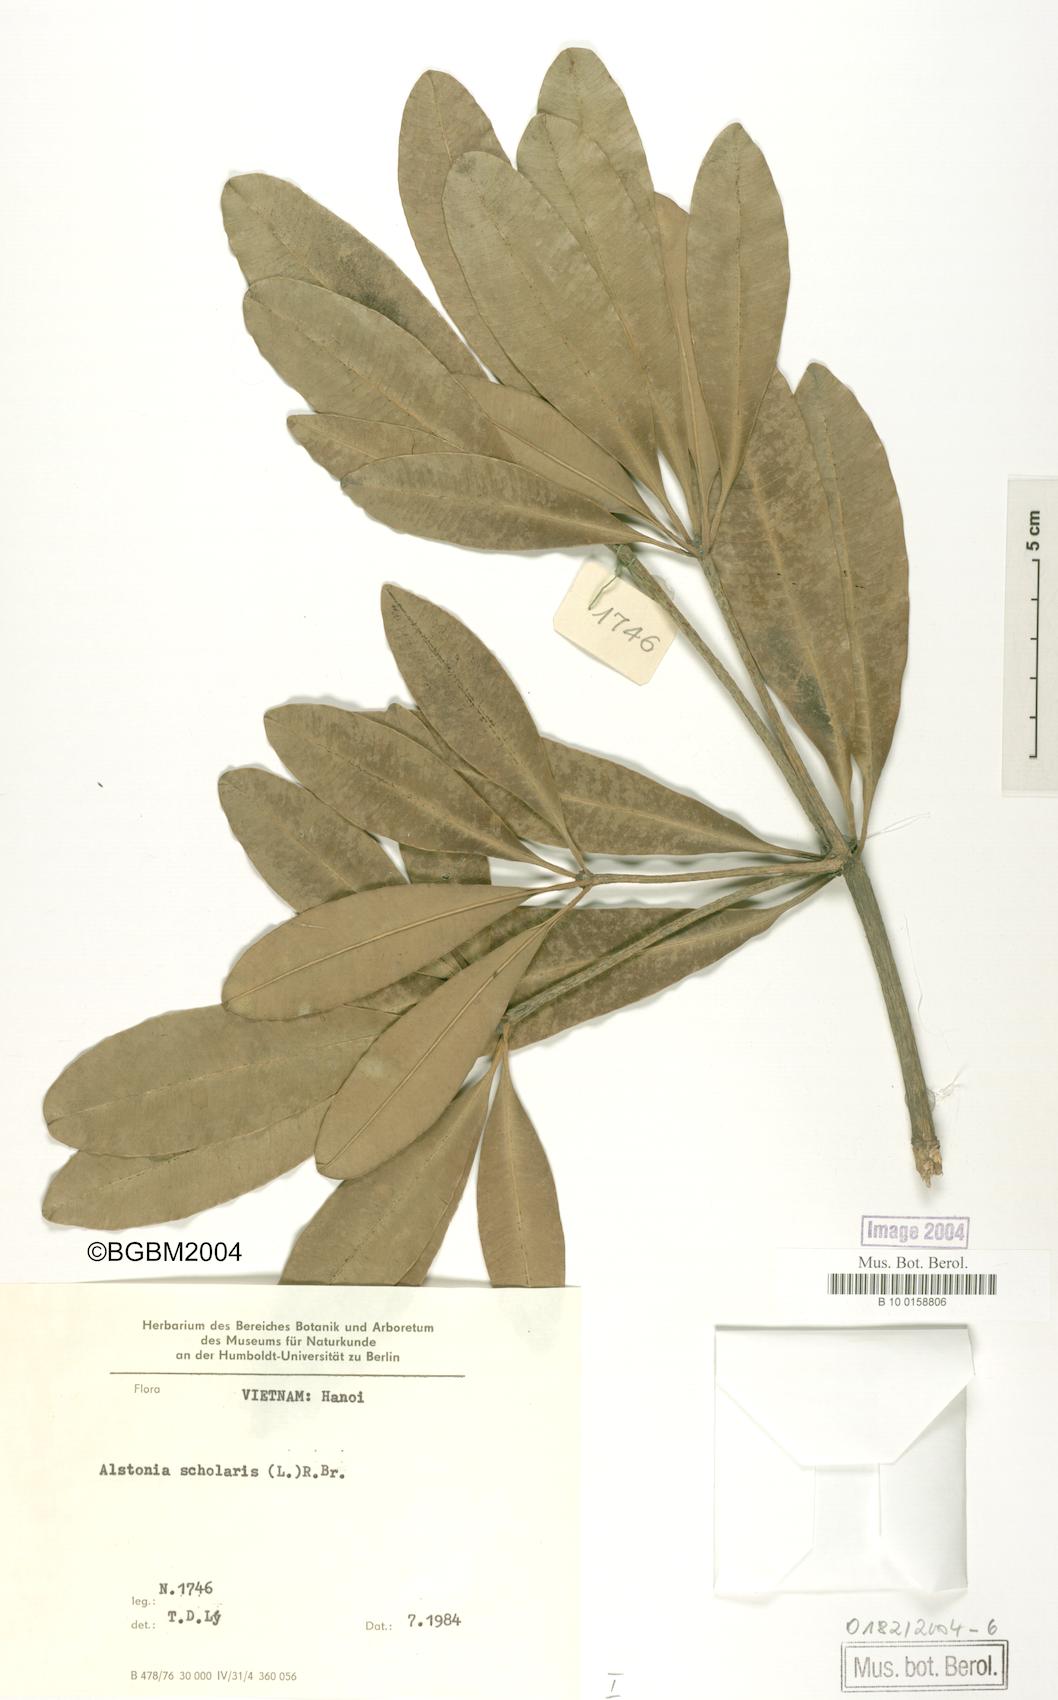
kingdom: Plantae
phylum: Tracheophyta
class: Magnoliopsida
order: Gentianales
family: Apocynaceae
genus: Alstonia
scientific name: Alstonia scholaris
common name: White cheesewood
